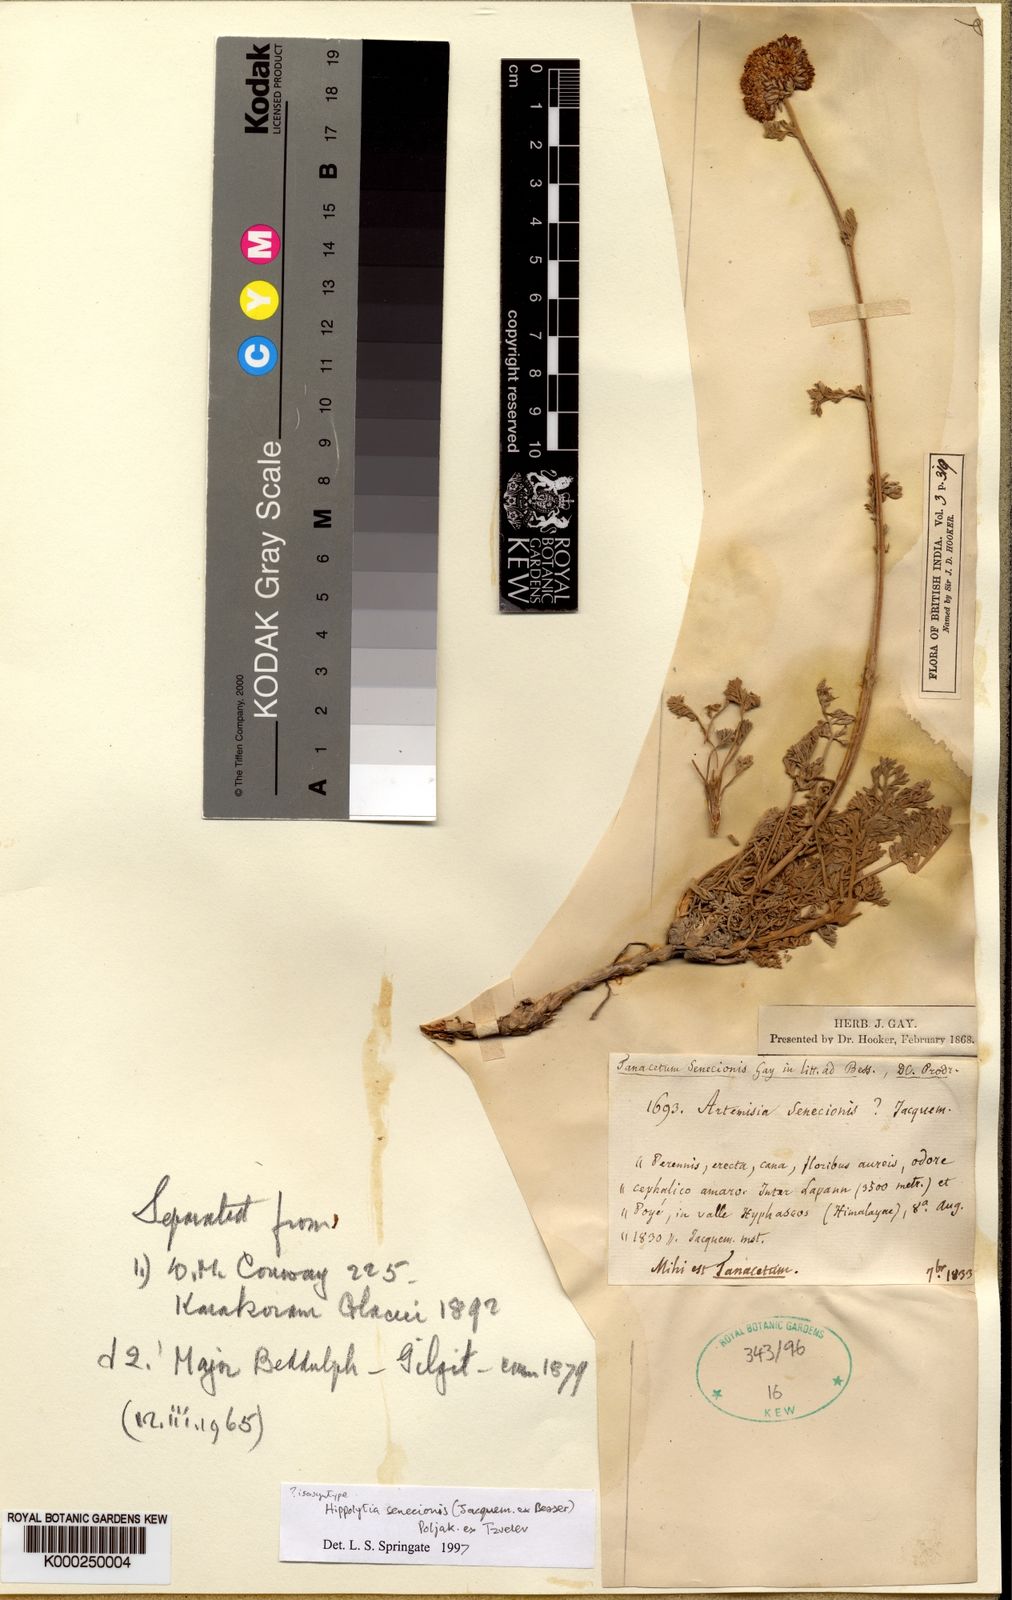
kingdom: Plantae
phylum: Tracheophyta
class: Magnoliopsida
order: Asterales
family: Asteraceae
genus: Hippolytia
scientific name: Hippolytia
